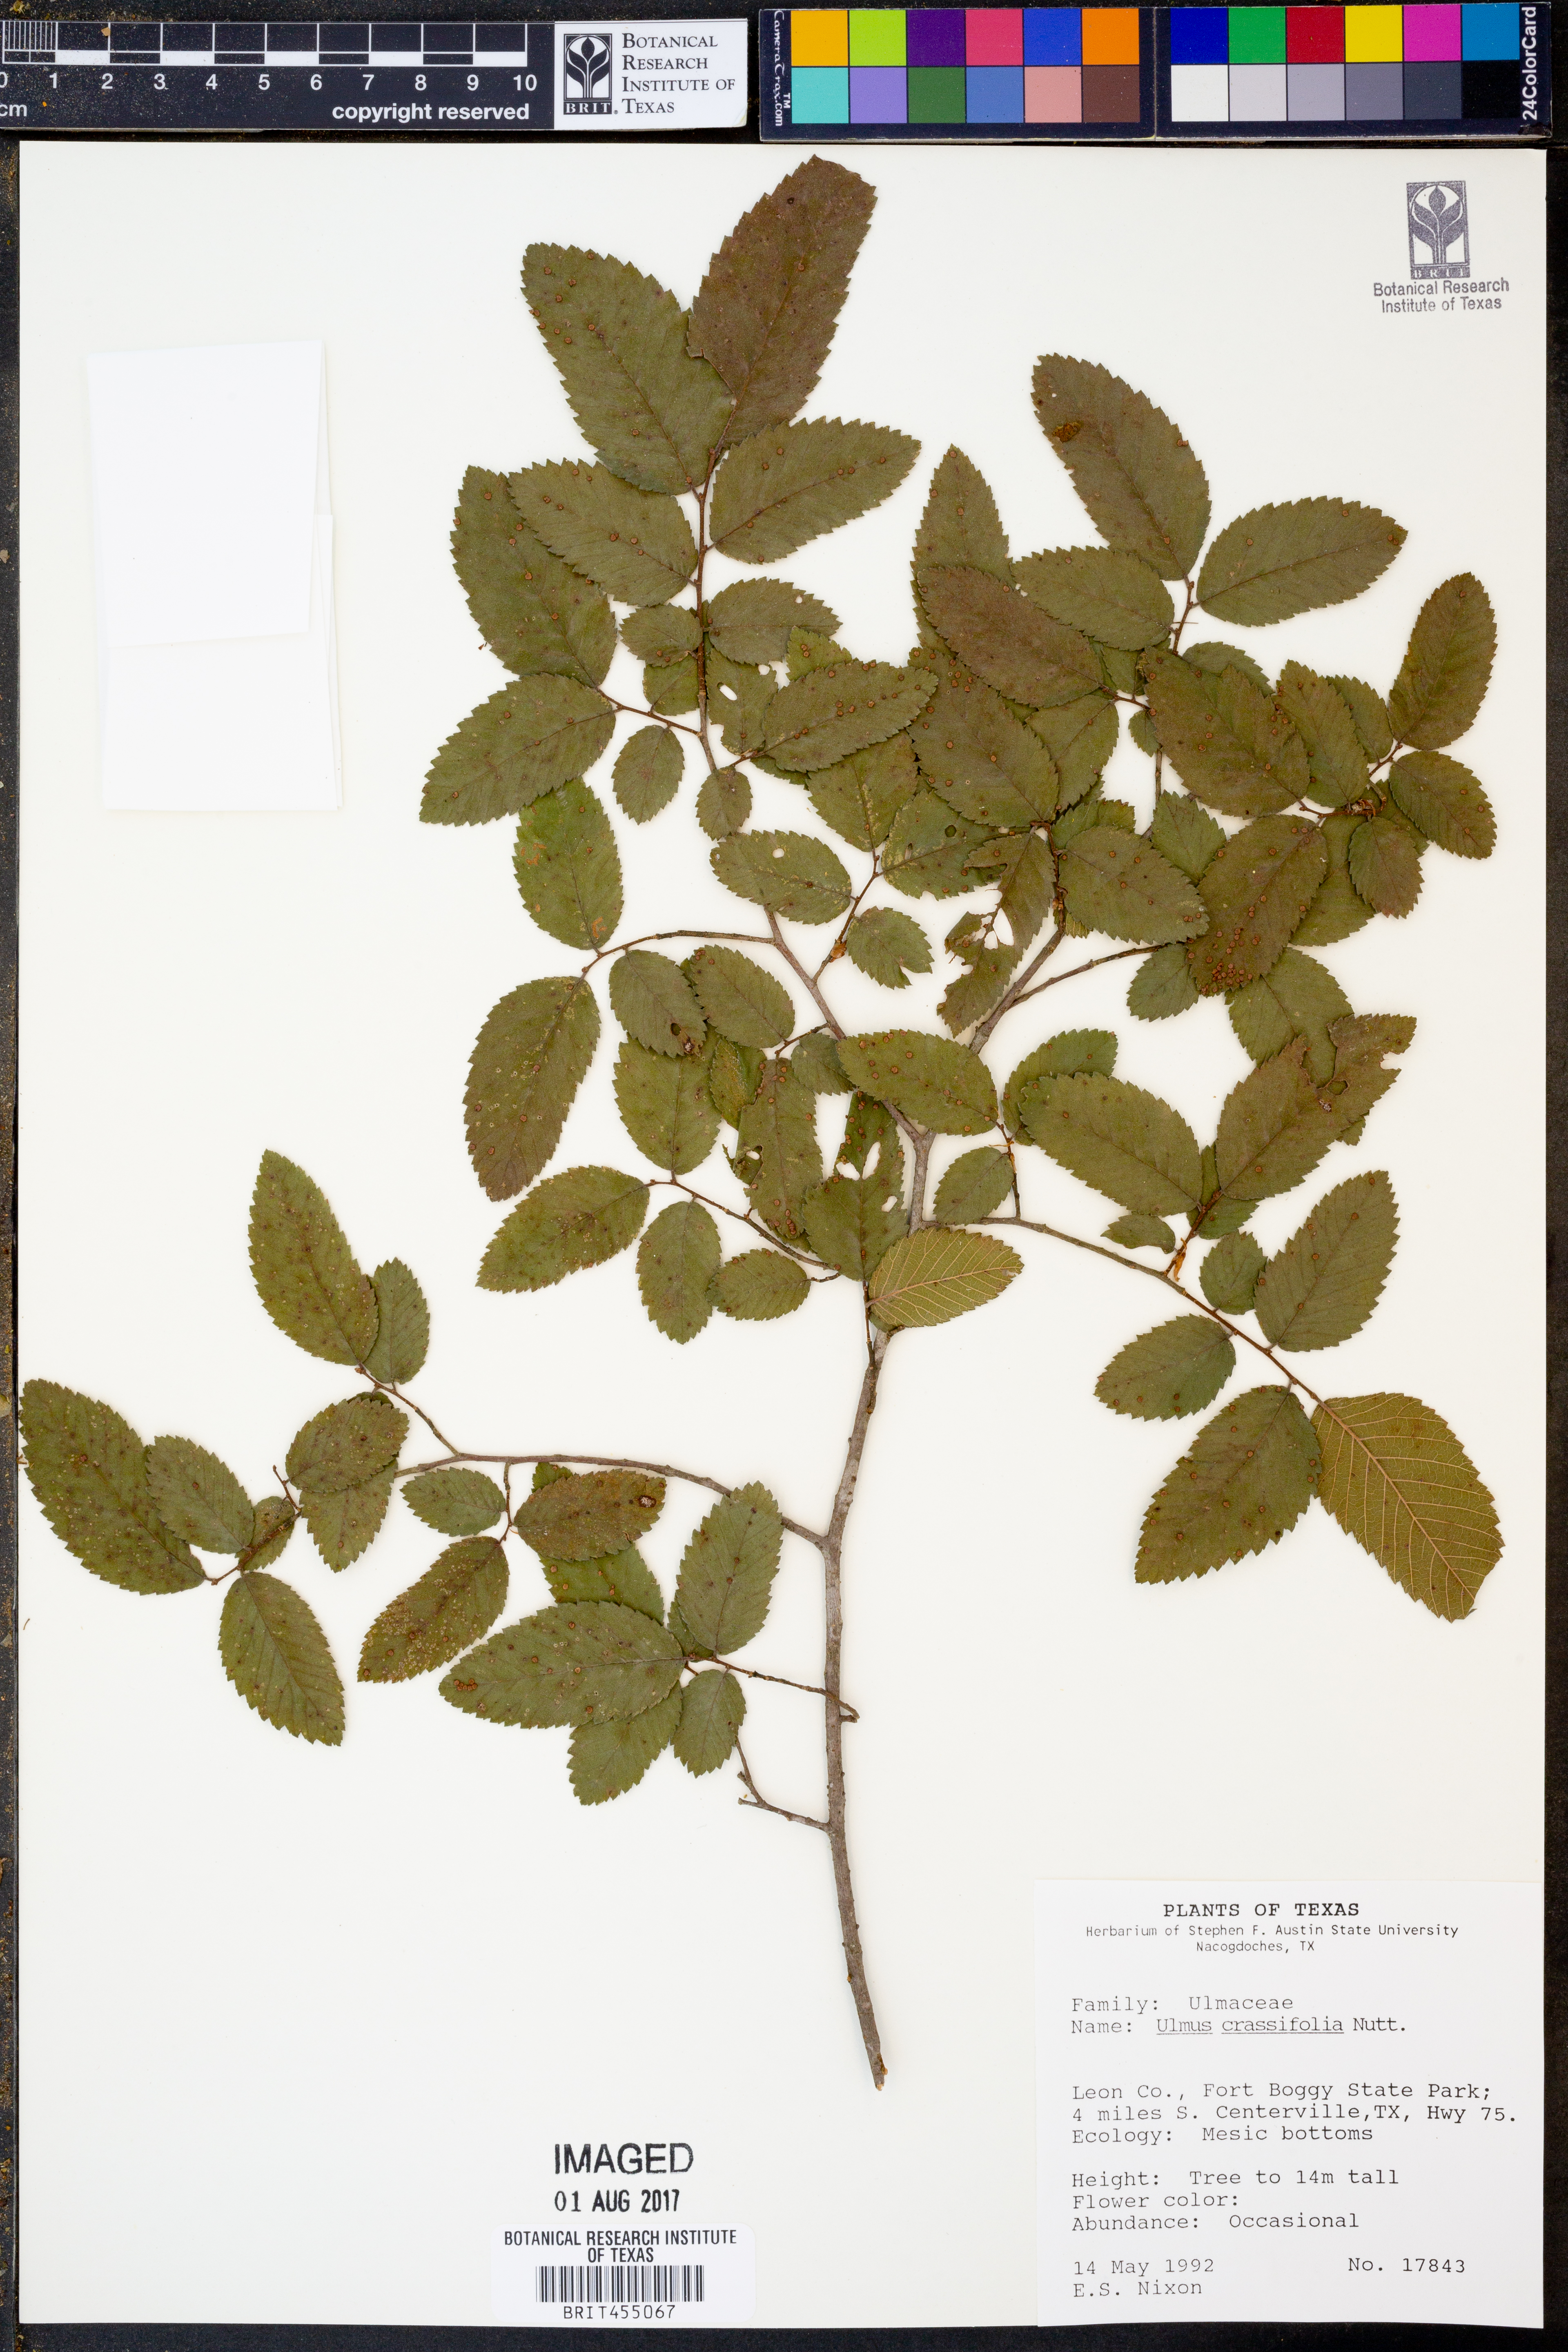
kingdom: Plantae
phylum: Tracheophyta
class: Magnoliopsida
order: Rosales
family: Ulmaceae
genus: Ulmus
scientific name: Ulmus crassifolia
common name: Basket elm
